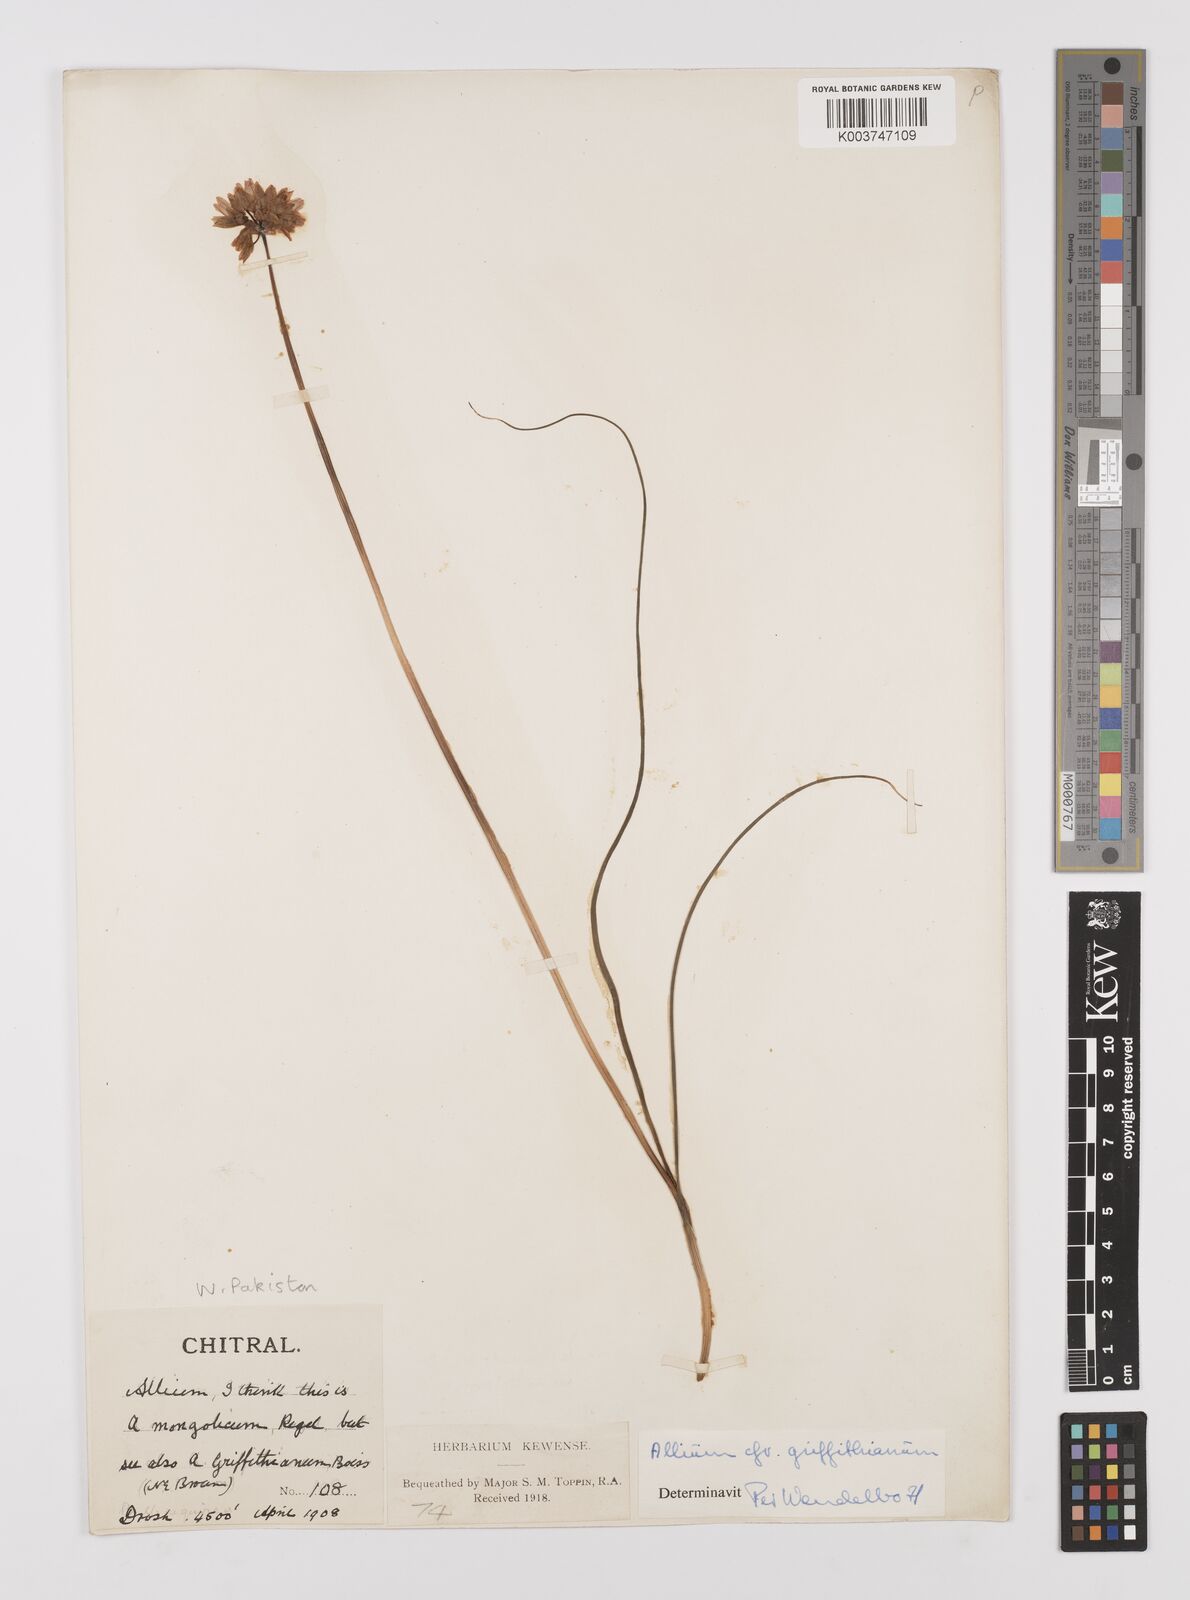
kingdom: Plantae
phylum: Tracheophyta
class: Liliopsida
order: Asparagales
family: Amaryllidaceae
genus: Allium
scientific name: Allium griffithianum
